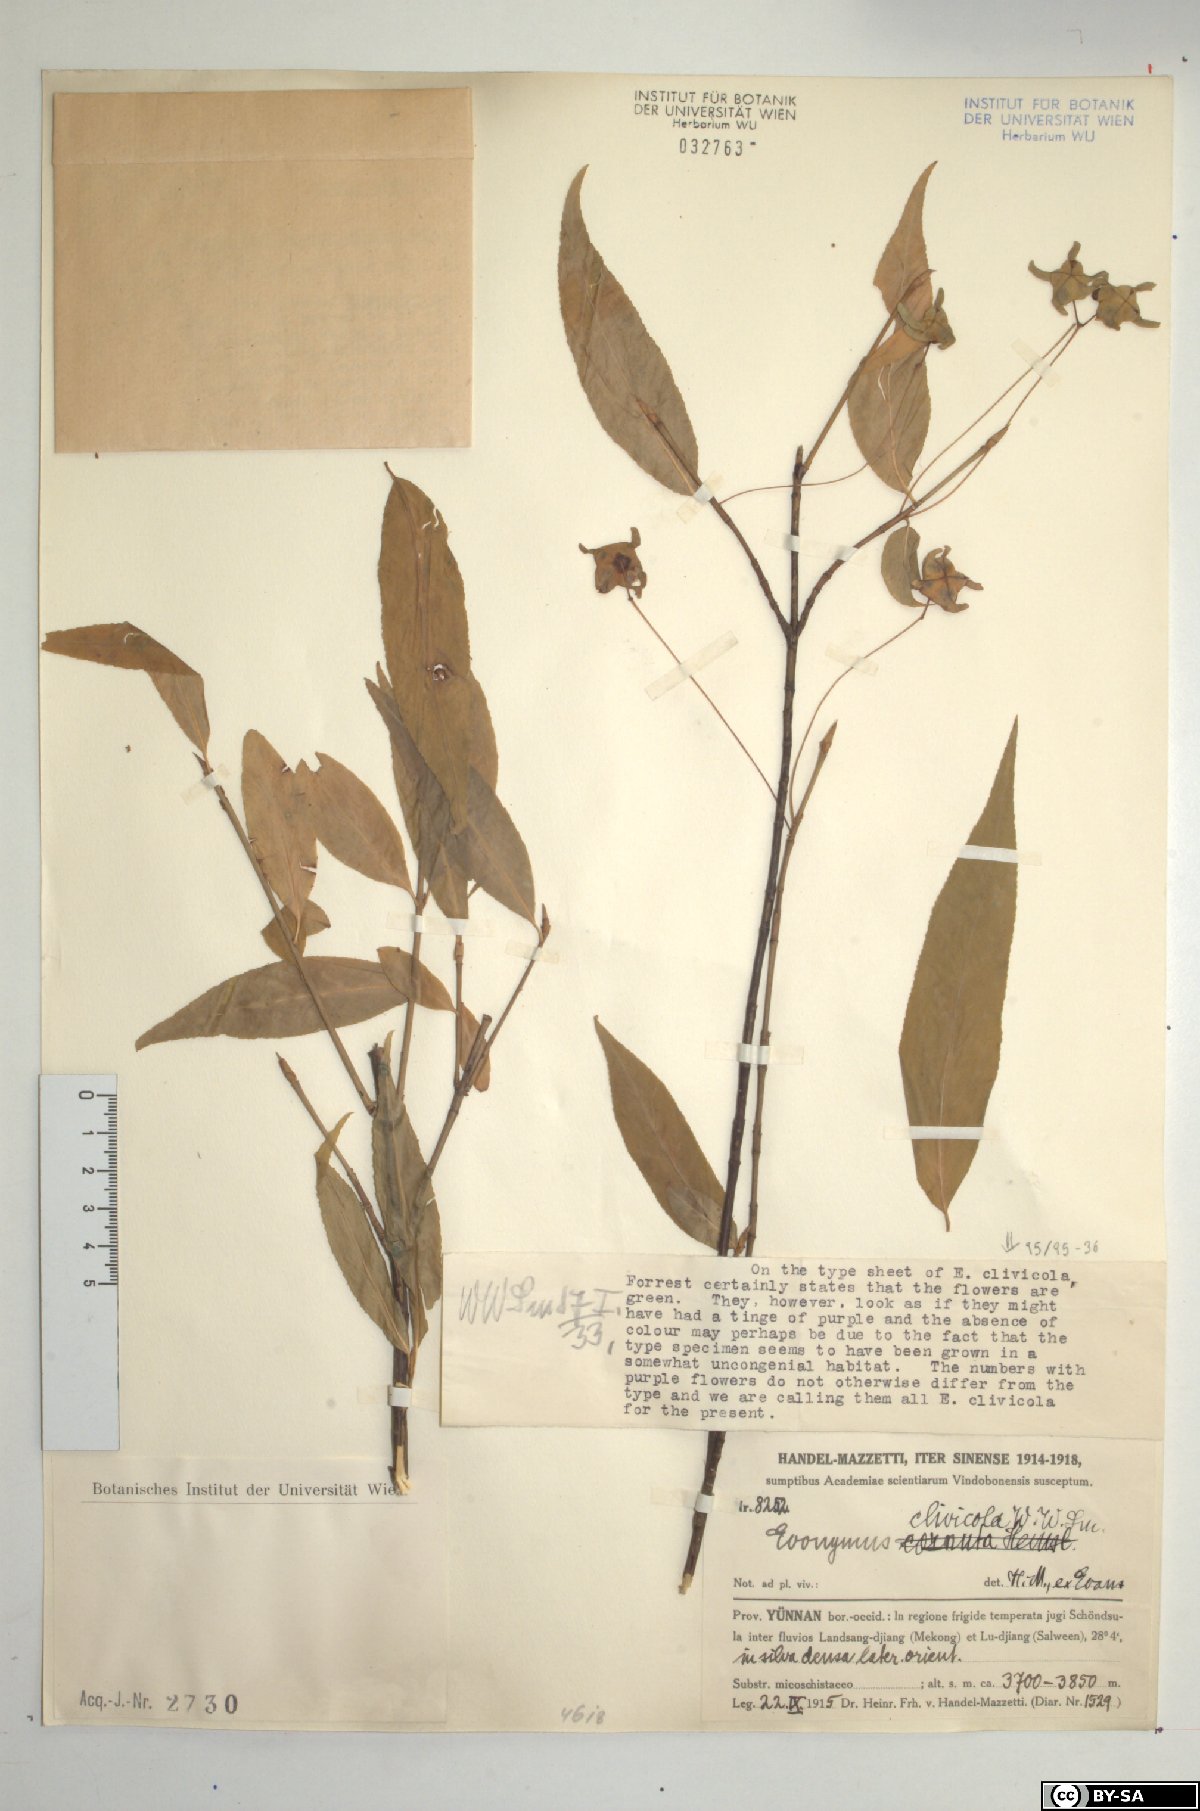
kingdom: Plantae
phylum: Tracheophyta
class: Magnoliopsida
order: Celastrales
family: Celastraceae
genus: Euonymus
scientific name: Euonymus clivicolus
